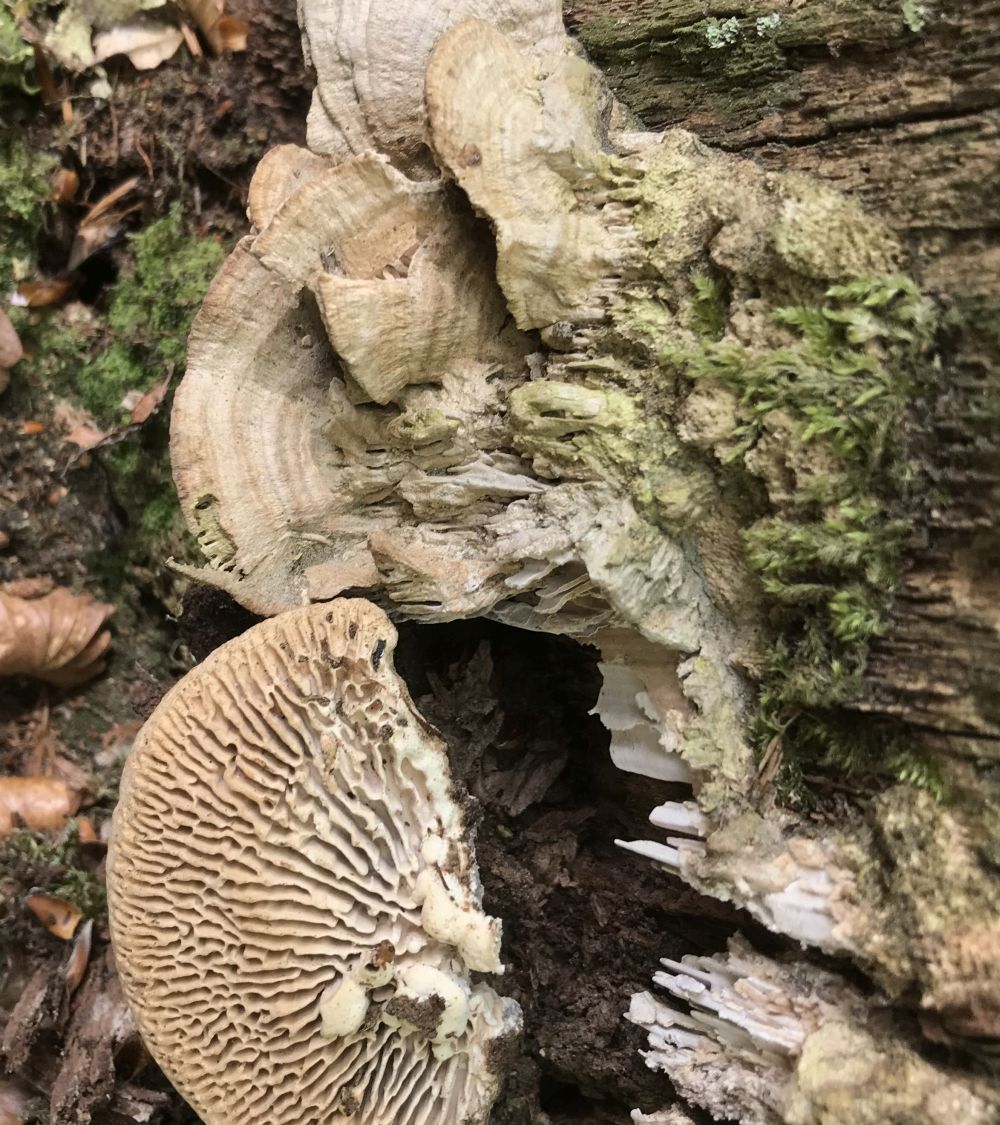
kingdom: Fungi
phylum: Basidiomycota
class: Agaricomycetes
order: Polyporales
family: Fomitopsidaceae
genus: Daedalea
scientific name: Daedalea quercina
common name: ege-labyrintsvamp
